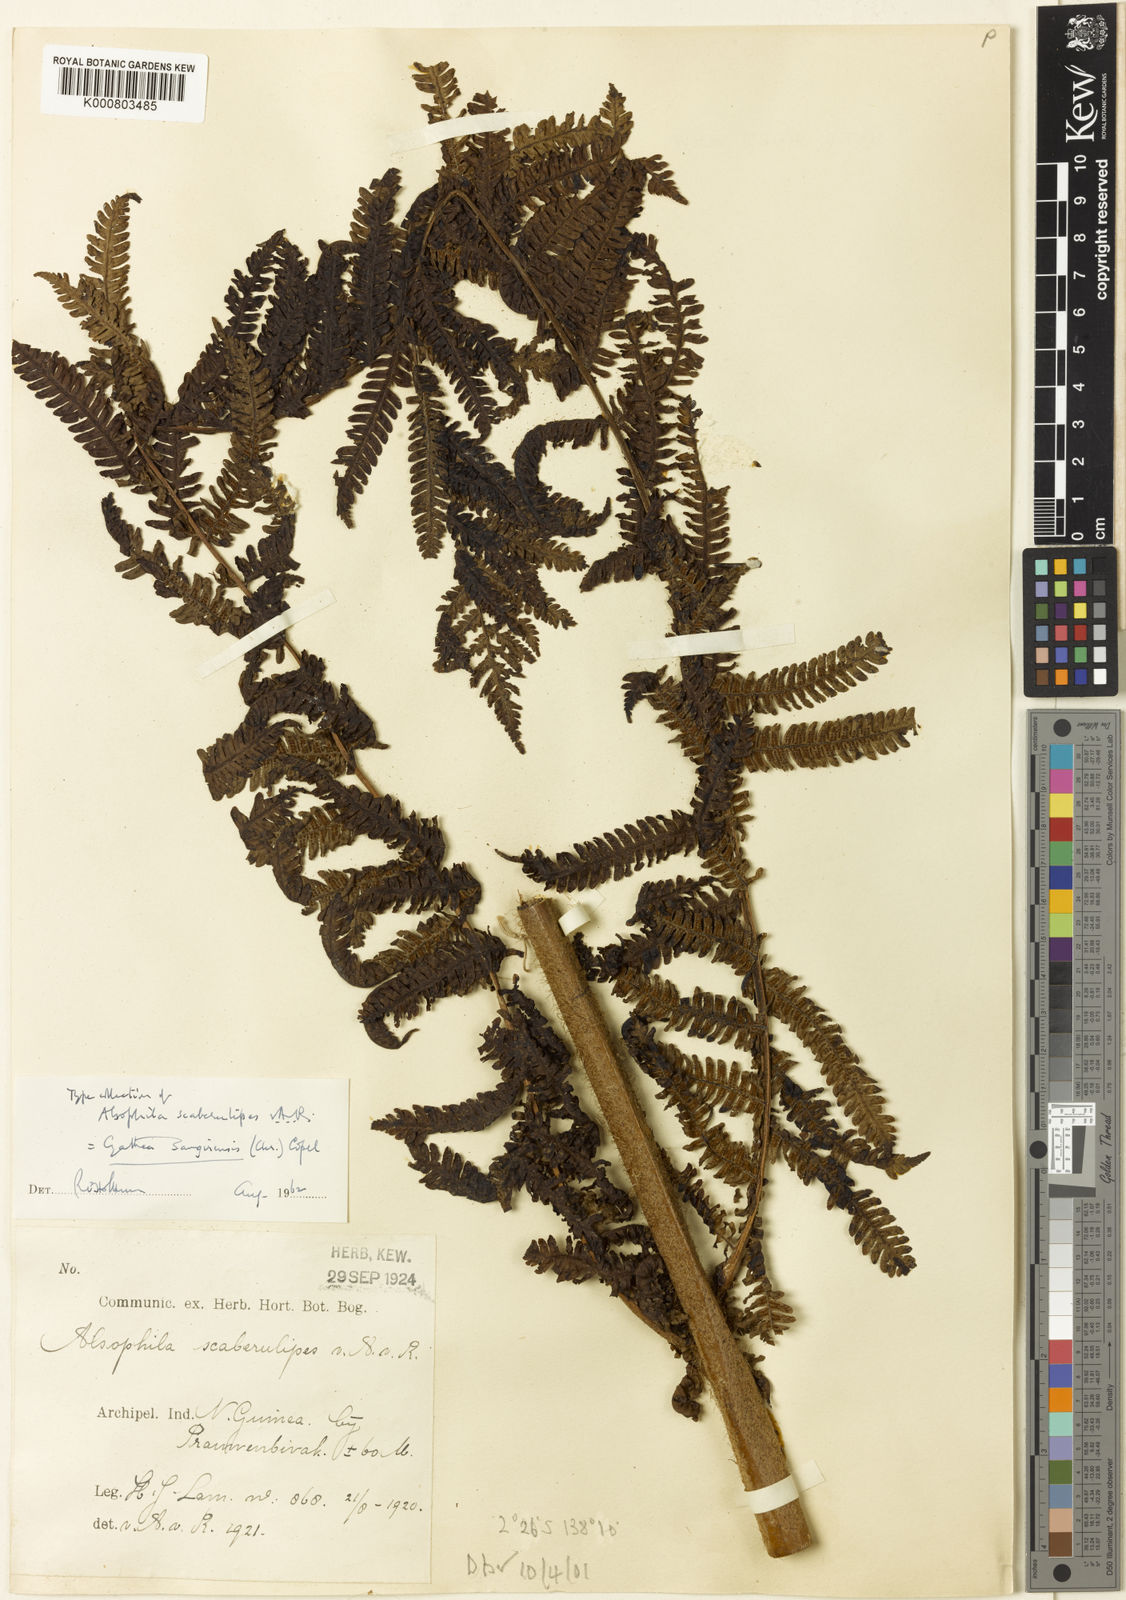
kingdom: Plantae
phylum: Tracheophyta
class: Polypodiopsida
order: Cyatheales
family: Cyatheaceae
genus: Sphaeropteris
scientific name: Sphaeropteris felina
